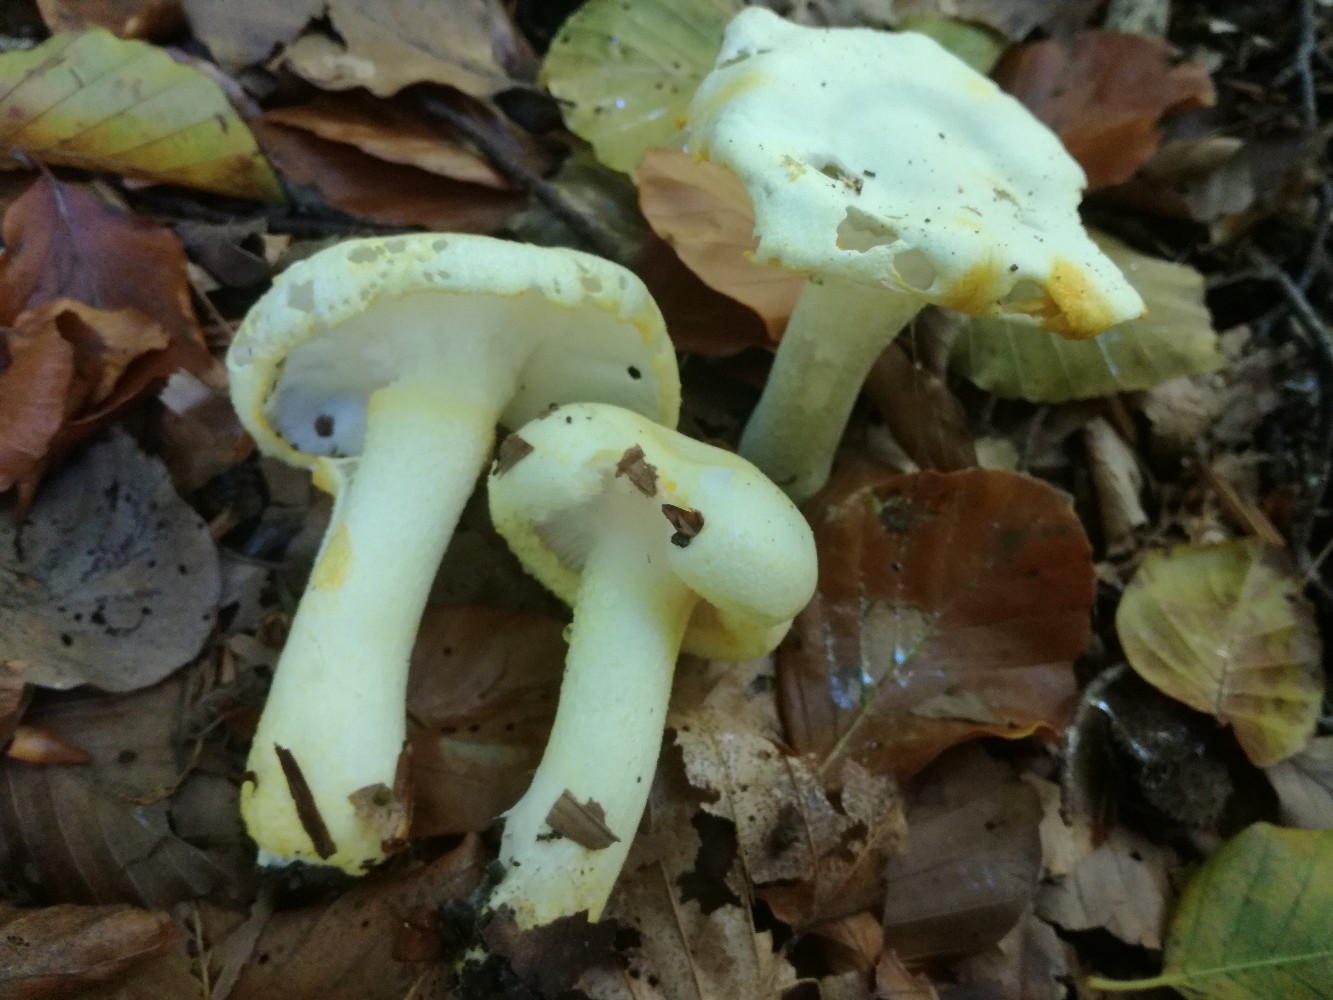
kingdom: Fungi
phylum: Basidiomycota
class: Agaricomycetes
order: Agaricales
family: Hygrophoraceae
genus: Hygrophorus
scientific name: Hygrophorus chrysodon
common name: gulfnugget sneglehat
